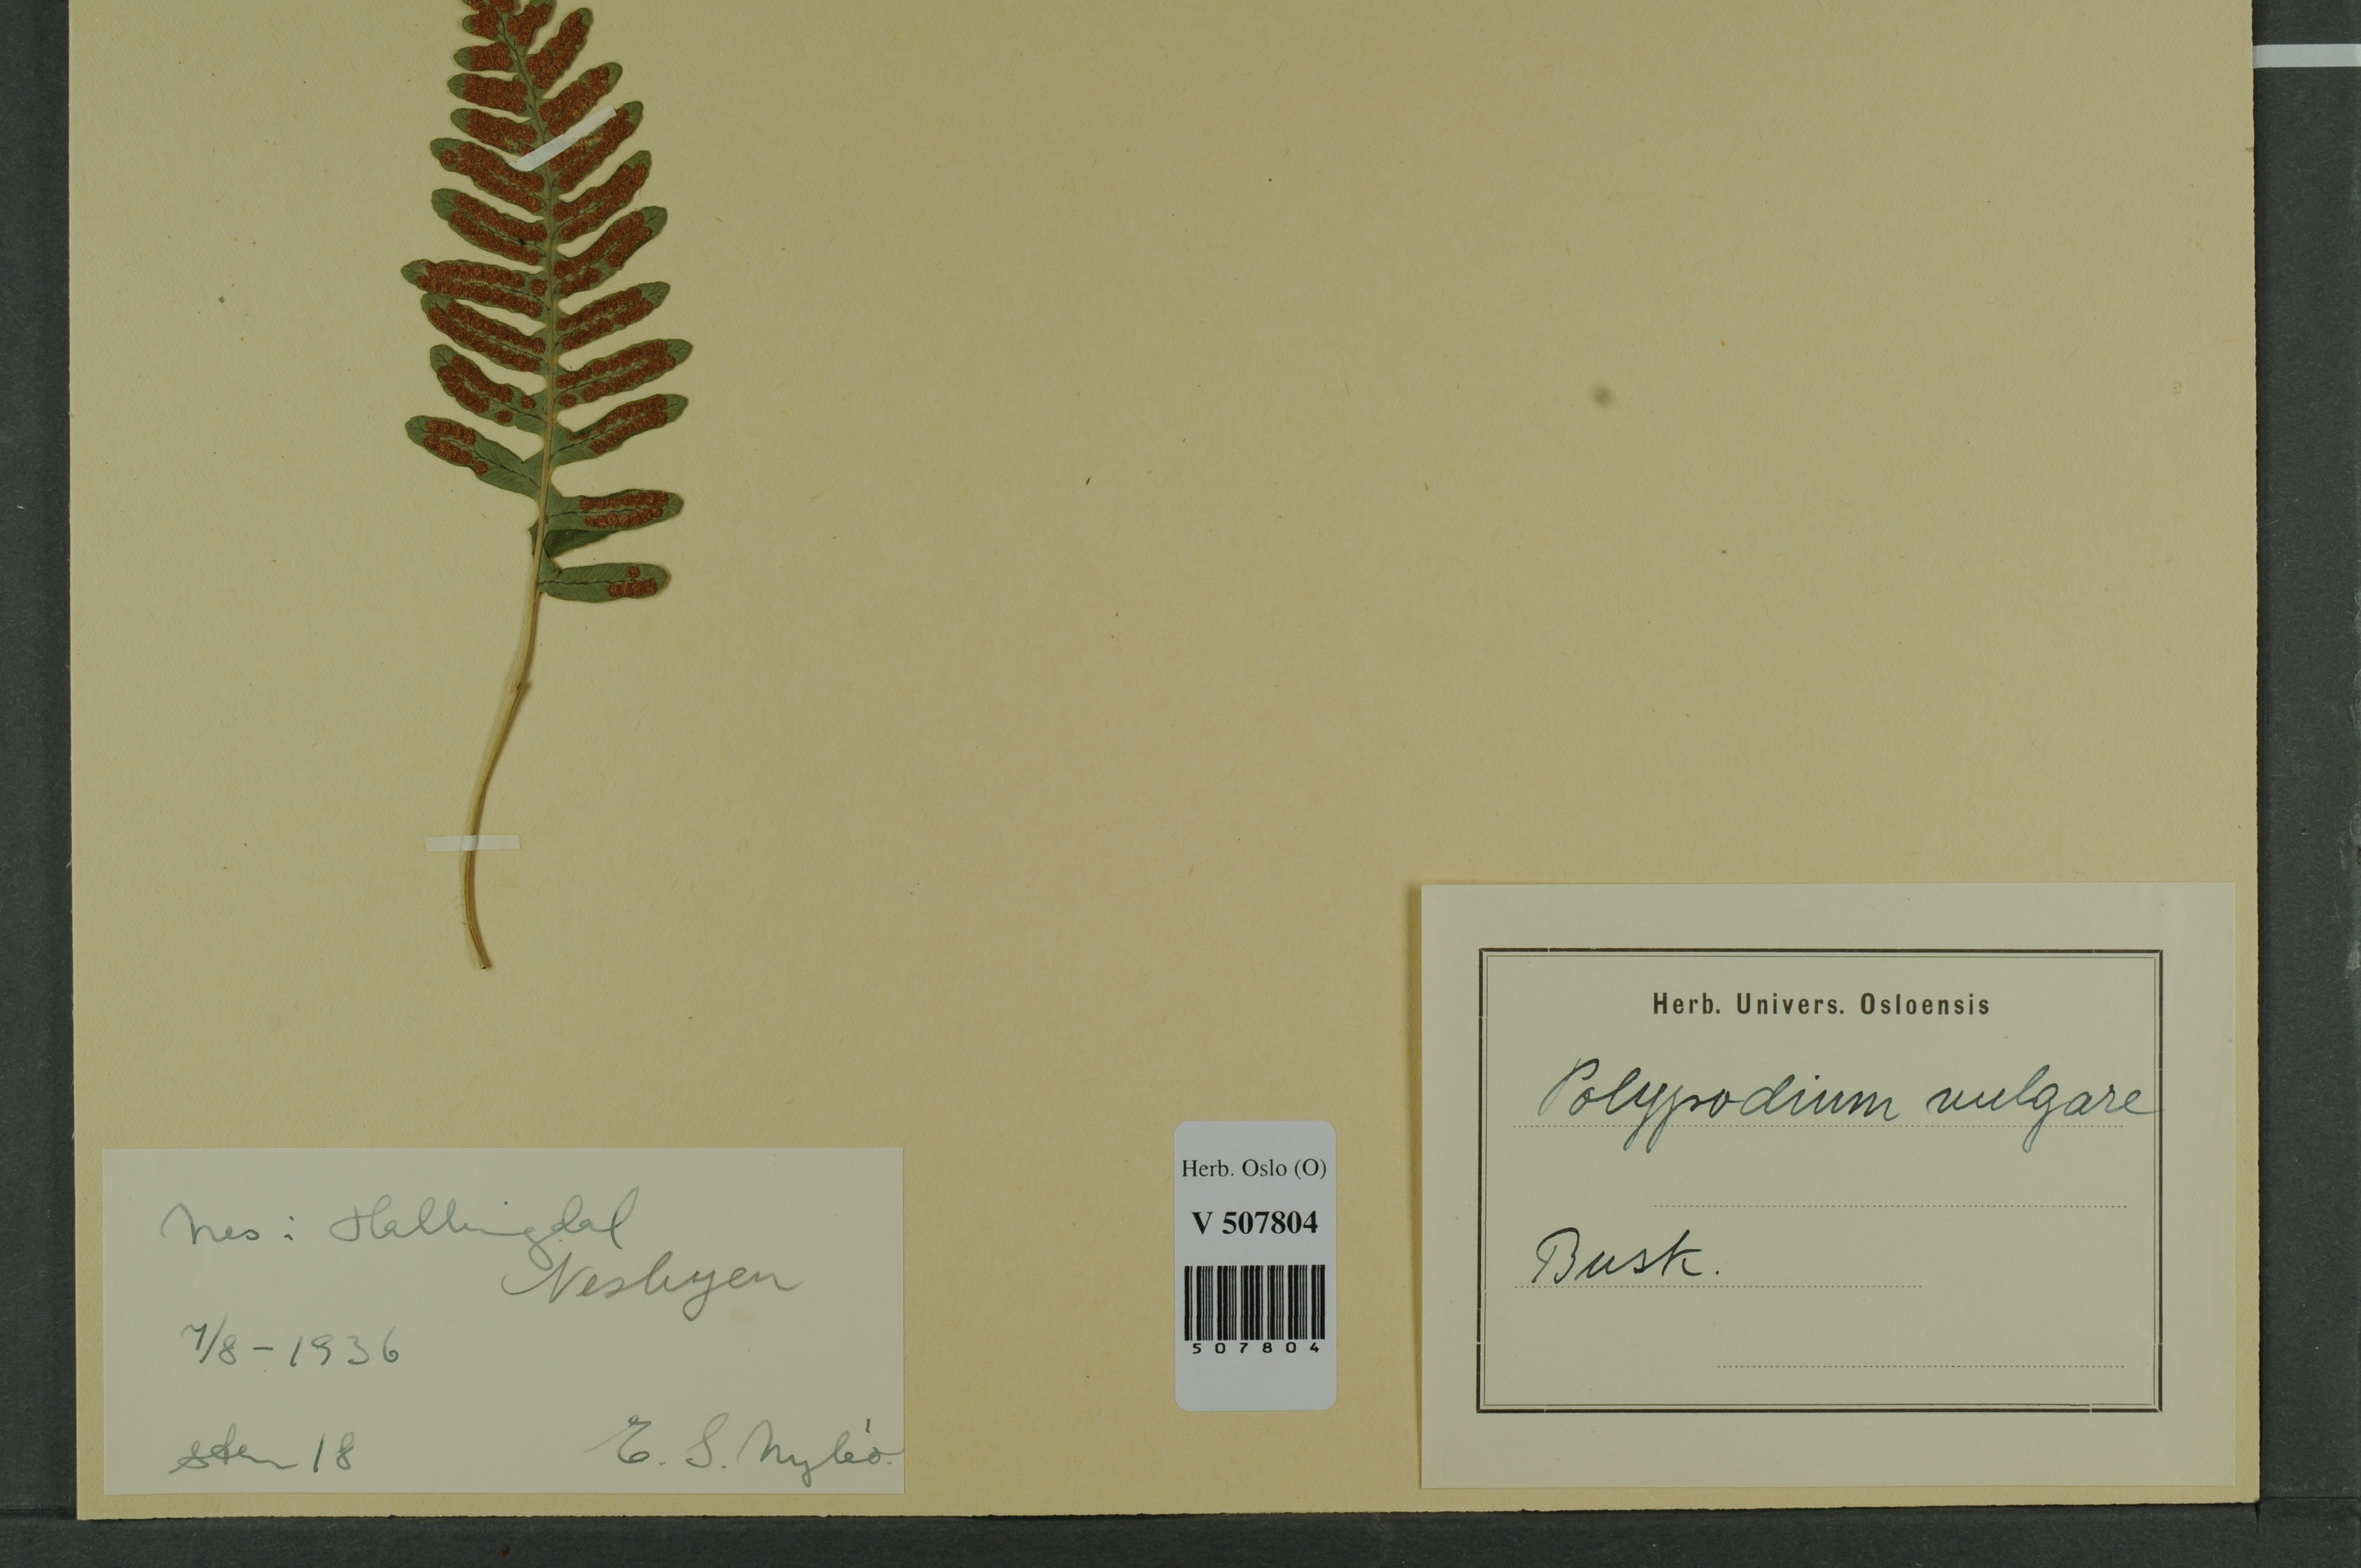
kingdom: Plantae
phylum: Tracheophyta
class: Polypodiopsida
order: Polypodiales
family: Polypodiaceae
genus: Polypodium
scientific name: Polypodium vulgare
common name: Common polypody
